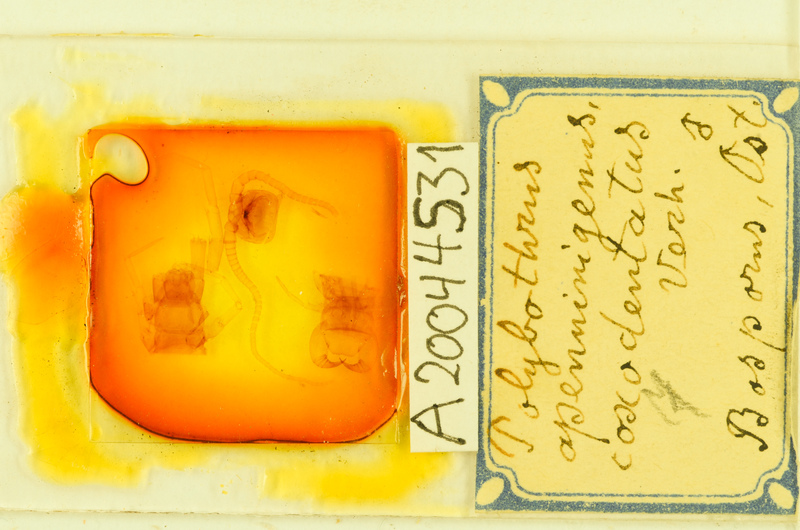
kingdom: Animalia
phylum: Arthropoda
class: Chilopoda
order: Lithobiomorpha
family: Lithobiidae
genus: Polybothrus
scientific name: Polybothrus
